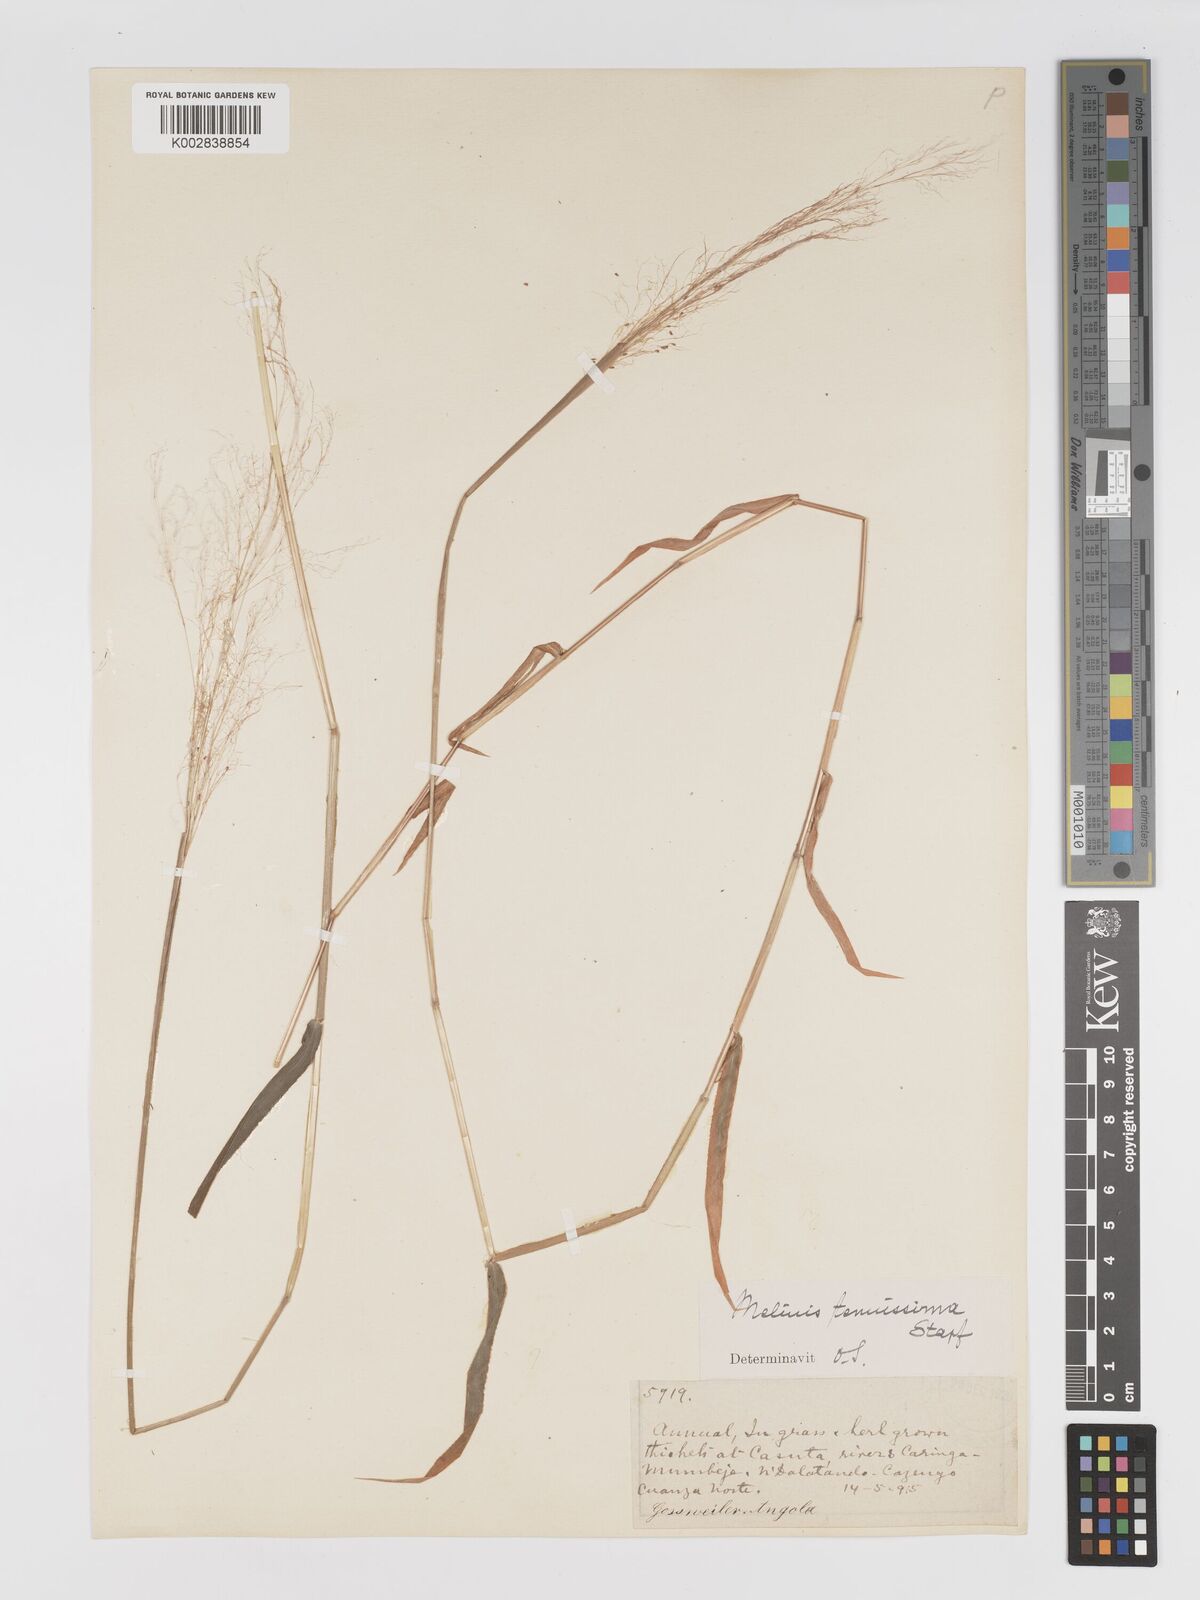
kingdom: Plantae
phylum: Tracheophyta
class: Liliopsida
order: Poales
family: Poaceae
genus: Melinis
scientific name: Melinis tenuissima
